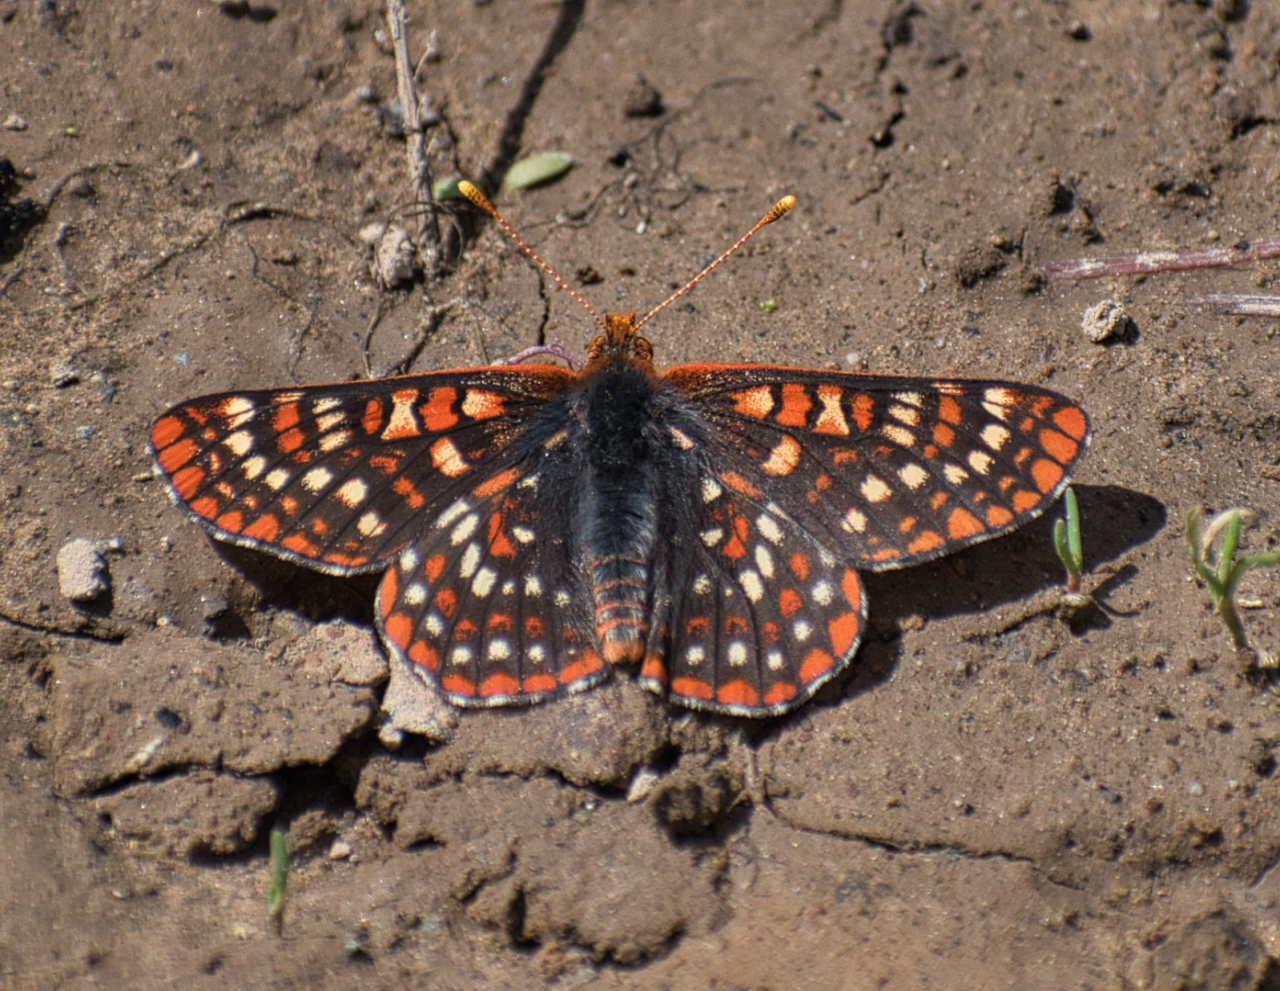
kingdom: Animalia
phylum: Arthropoda
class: Insecta
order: Lepidoptera
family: Nymphalidae
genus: Occidryas
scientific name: Occidryas anicia
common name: Anicia Checkerspot
